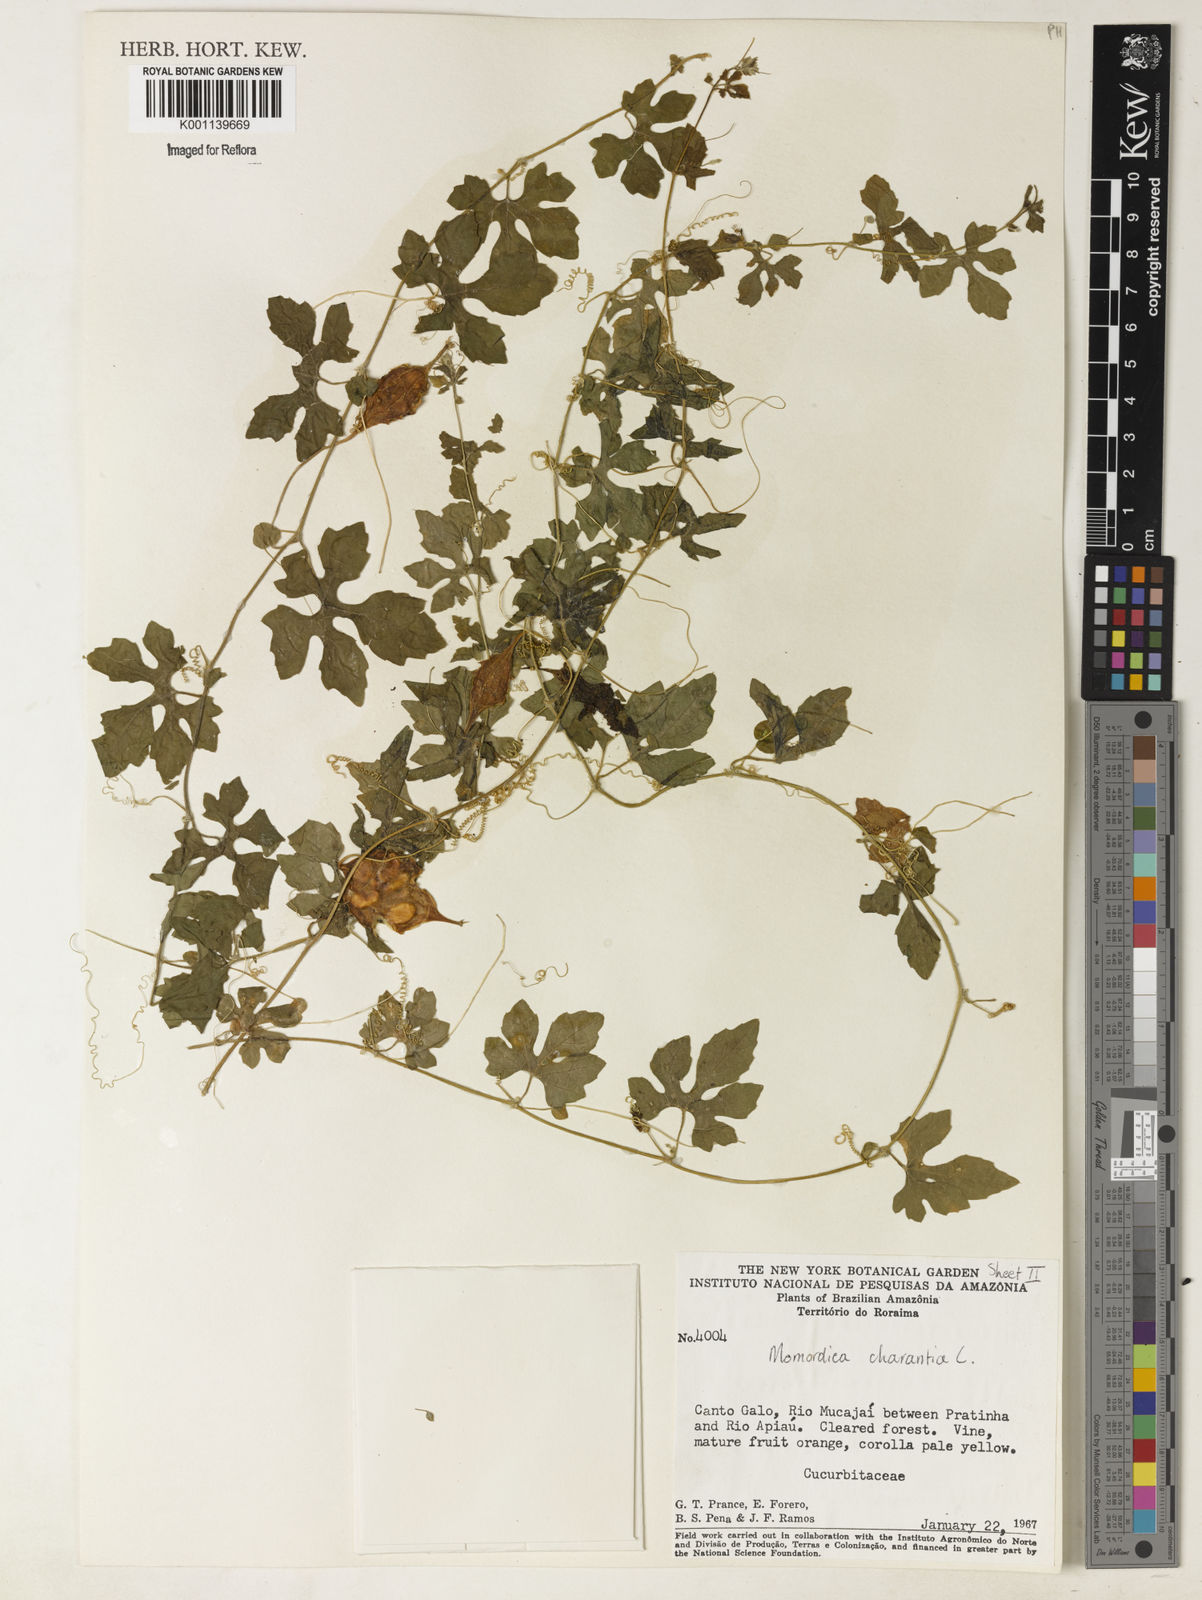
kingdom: Plantae
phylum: Tracheophyta
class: Magnoliopsida
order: Cucurbitales
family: Cucurbitaceae
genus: Momordica
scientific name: Momordica charantia
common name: Balsampear
